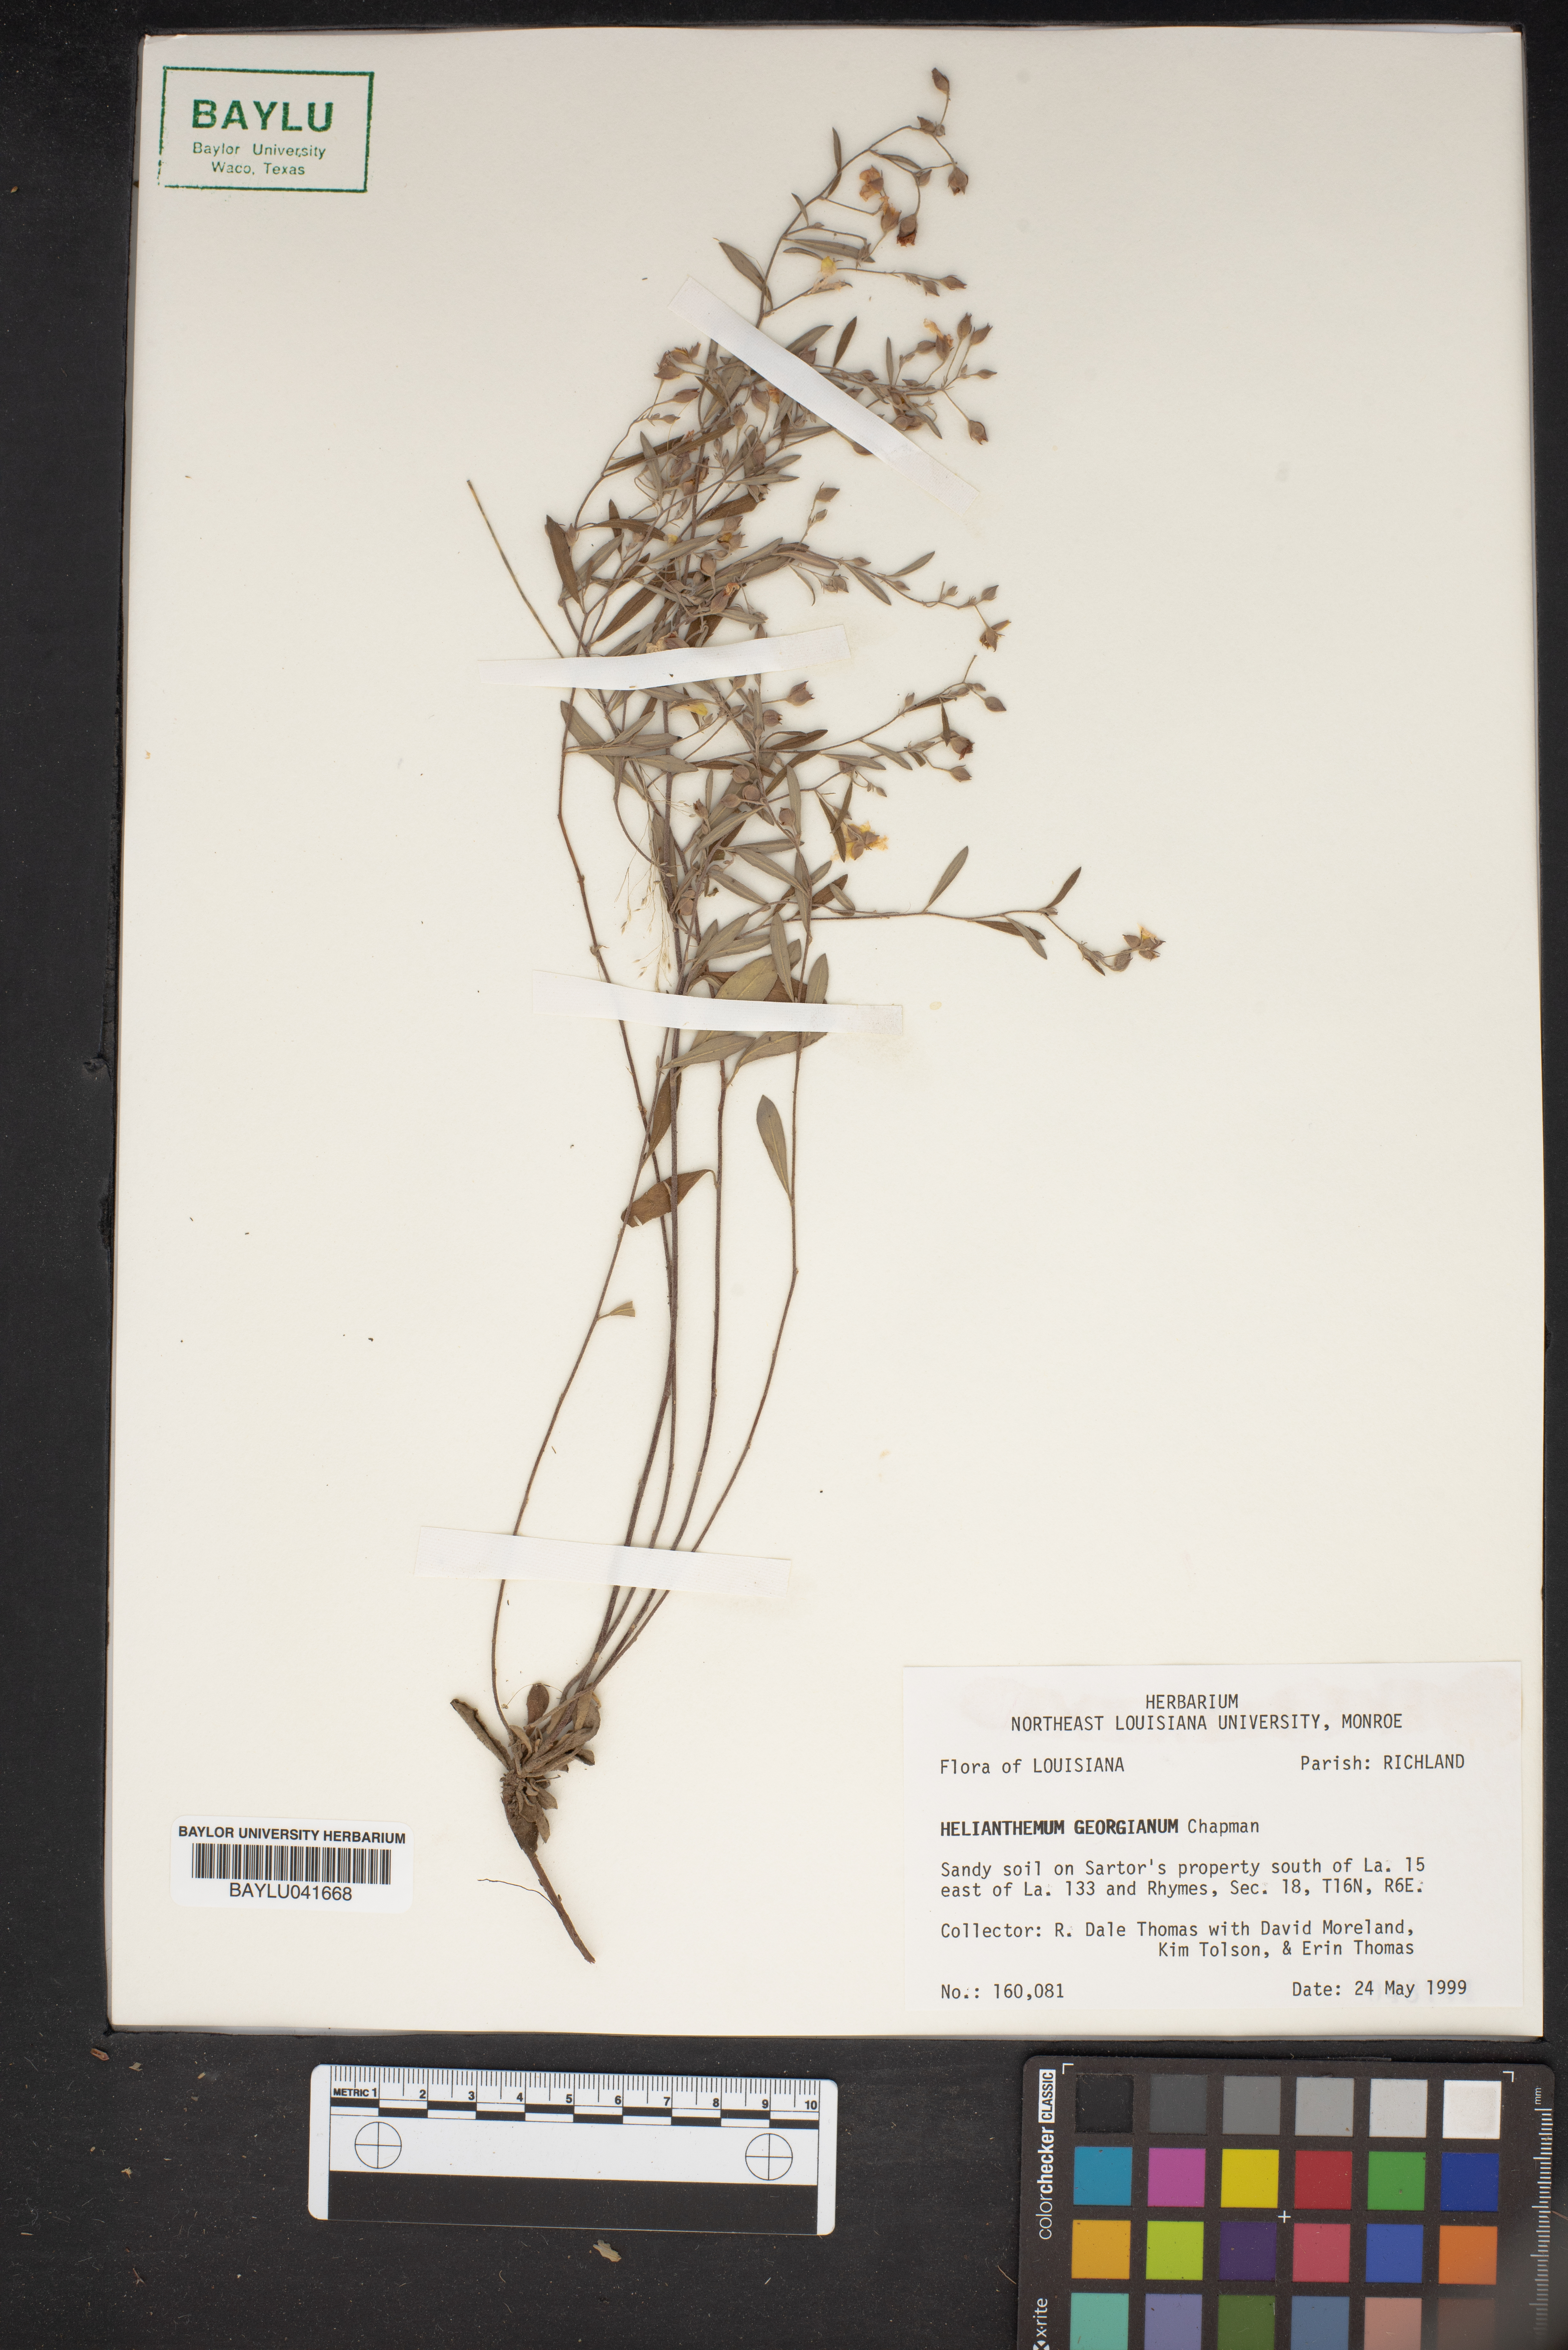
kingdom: Plantae
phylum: Tracheophyta
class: Magnoliopsida
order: Malvales
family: Cistaceae
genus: Crocanthemum
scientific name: Crocanthemum georgianum
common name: Georgia frostweed
